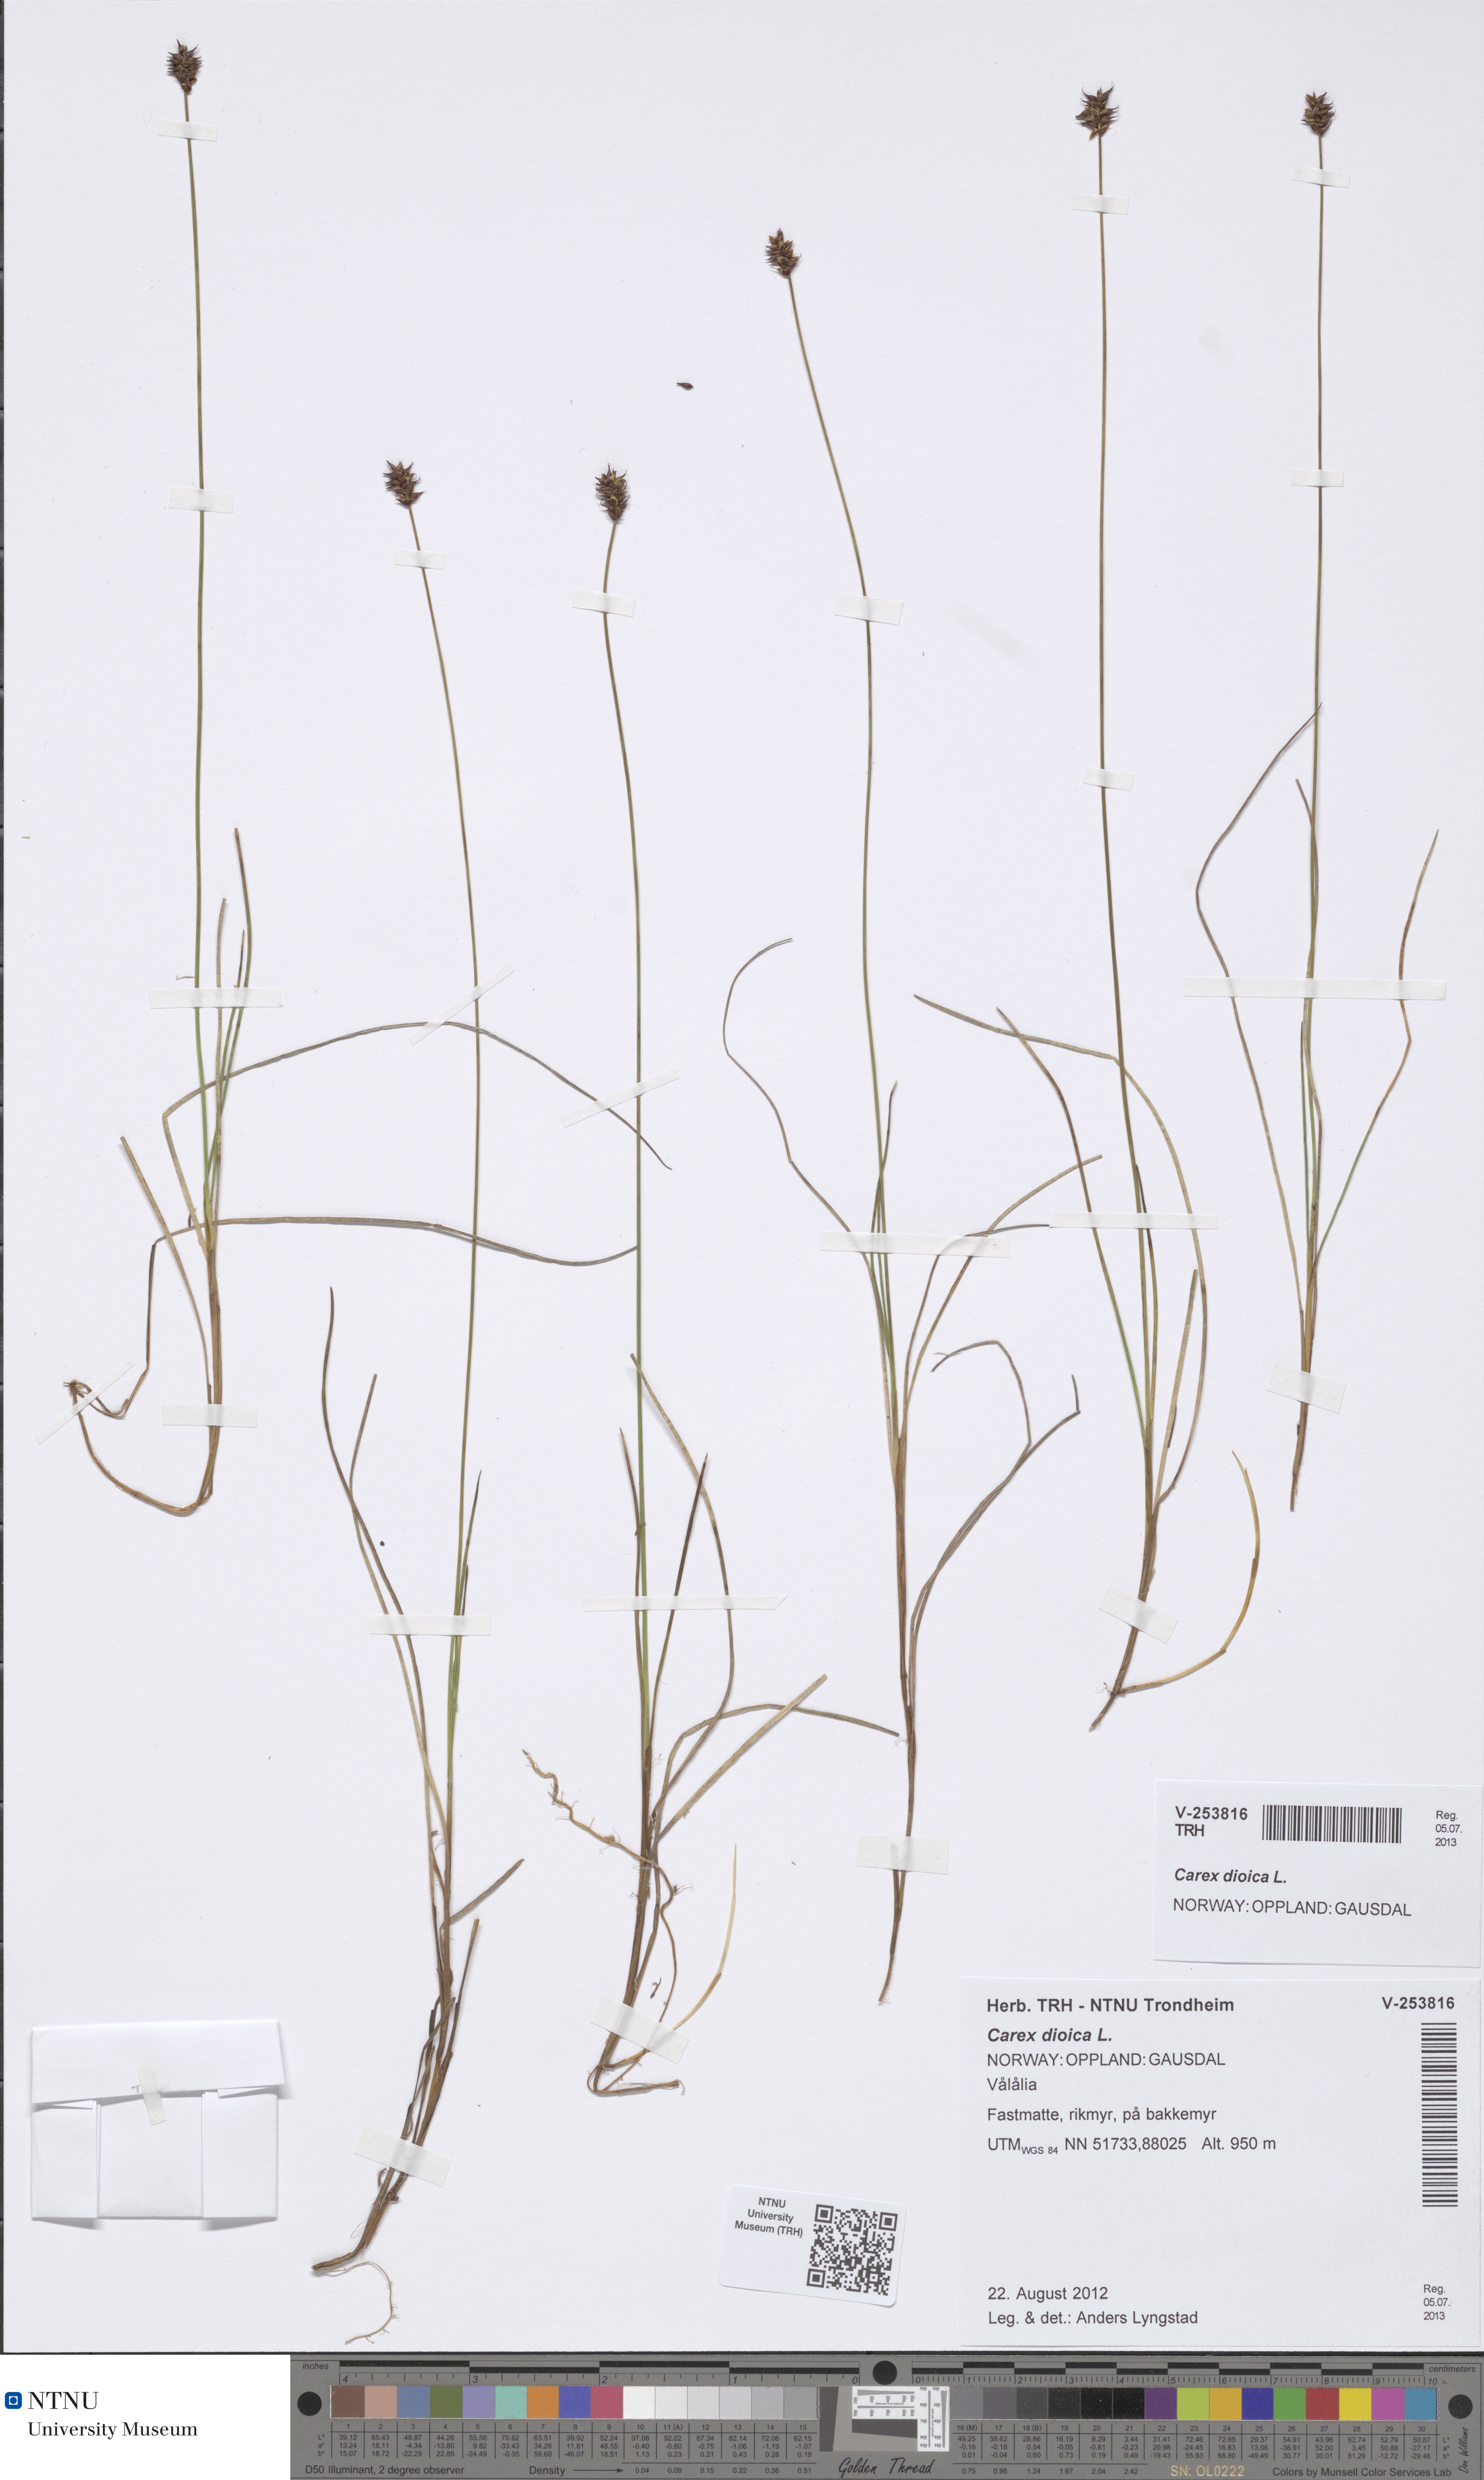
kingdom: Plantae
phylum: Tracheophyta
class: Liliopsida
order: Poales
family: Cyperaceae
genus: Carex
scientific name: Carex dioica
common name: Dioecious sedge
